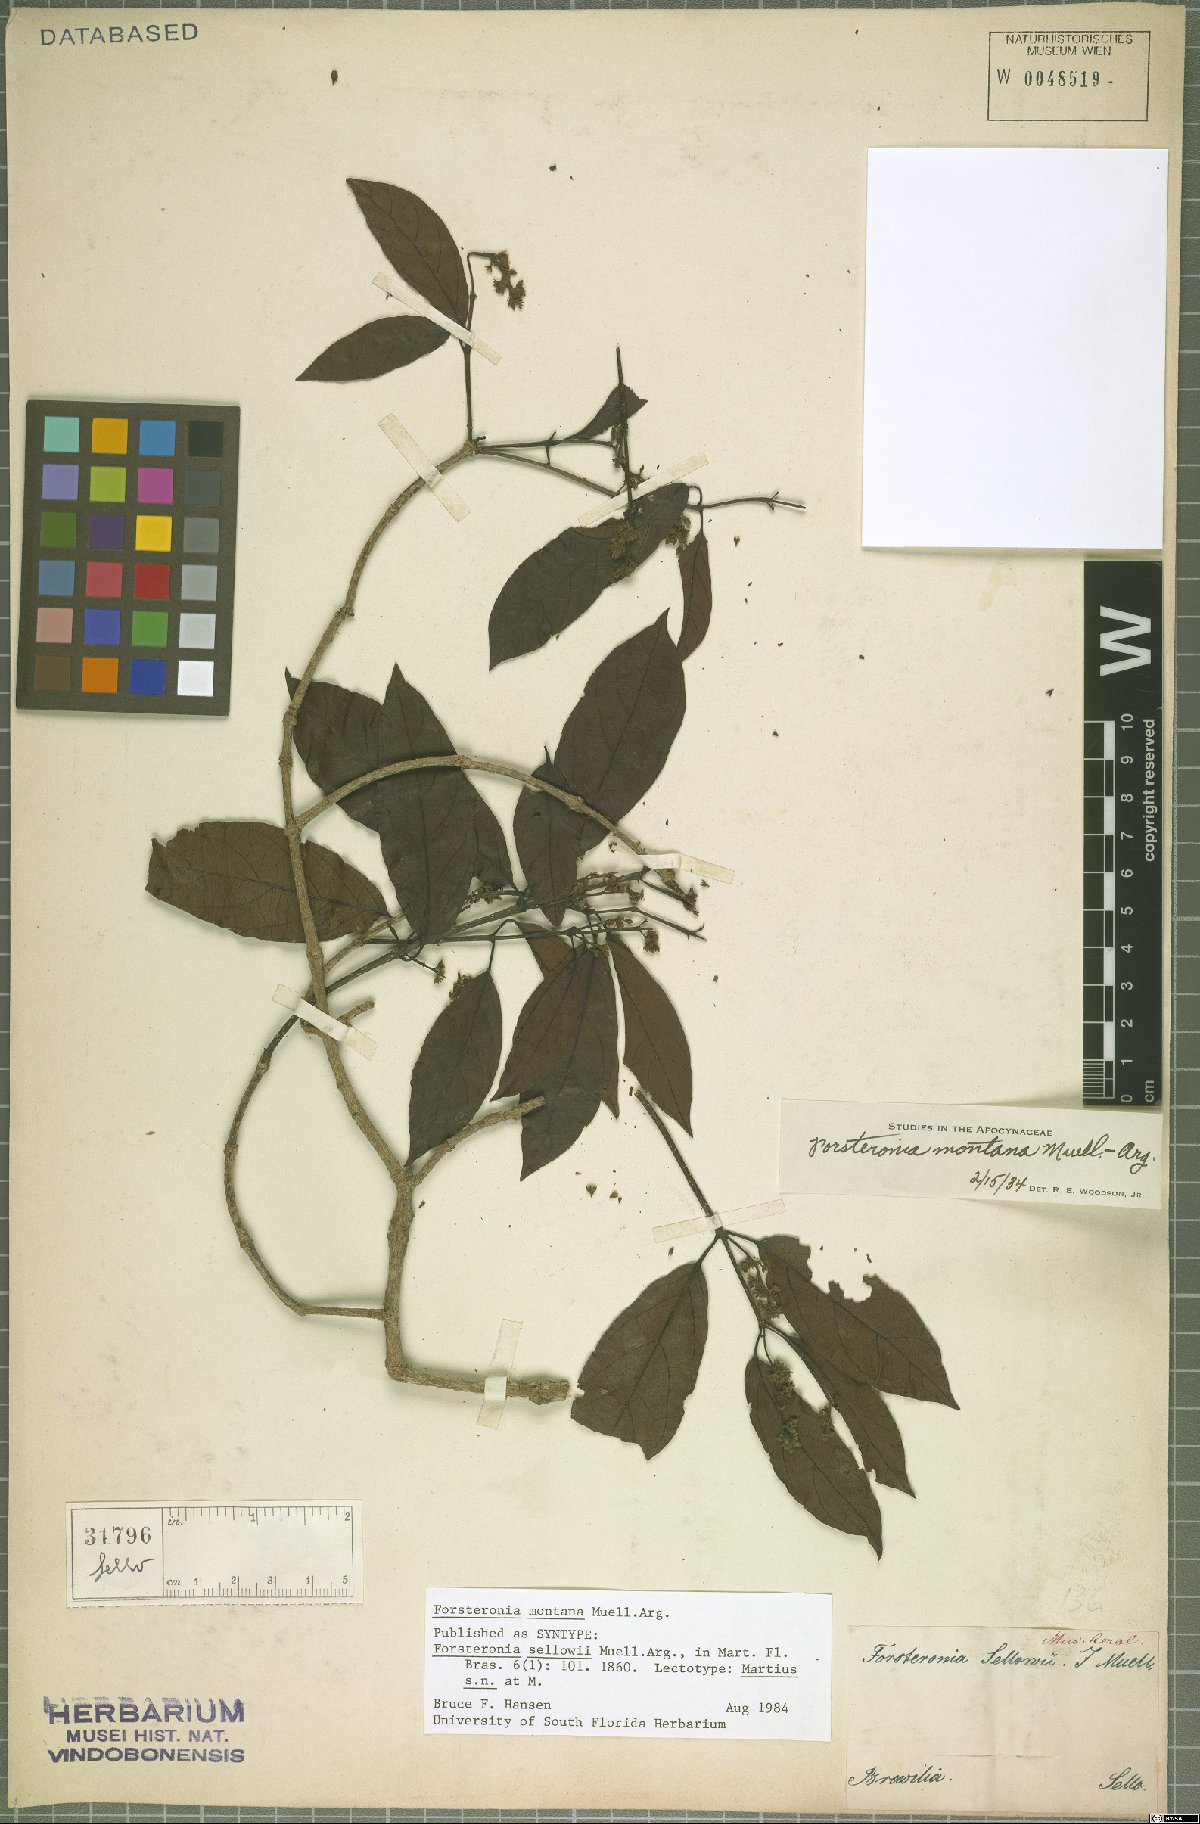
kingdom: Plantae
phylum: Tracheophyta
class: Magnoliopsida
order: Gentianales
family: Apocynaceae
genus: Forsteronia
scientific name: Forsteronia montana
